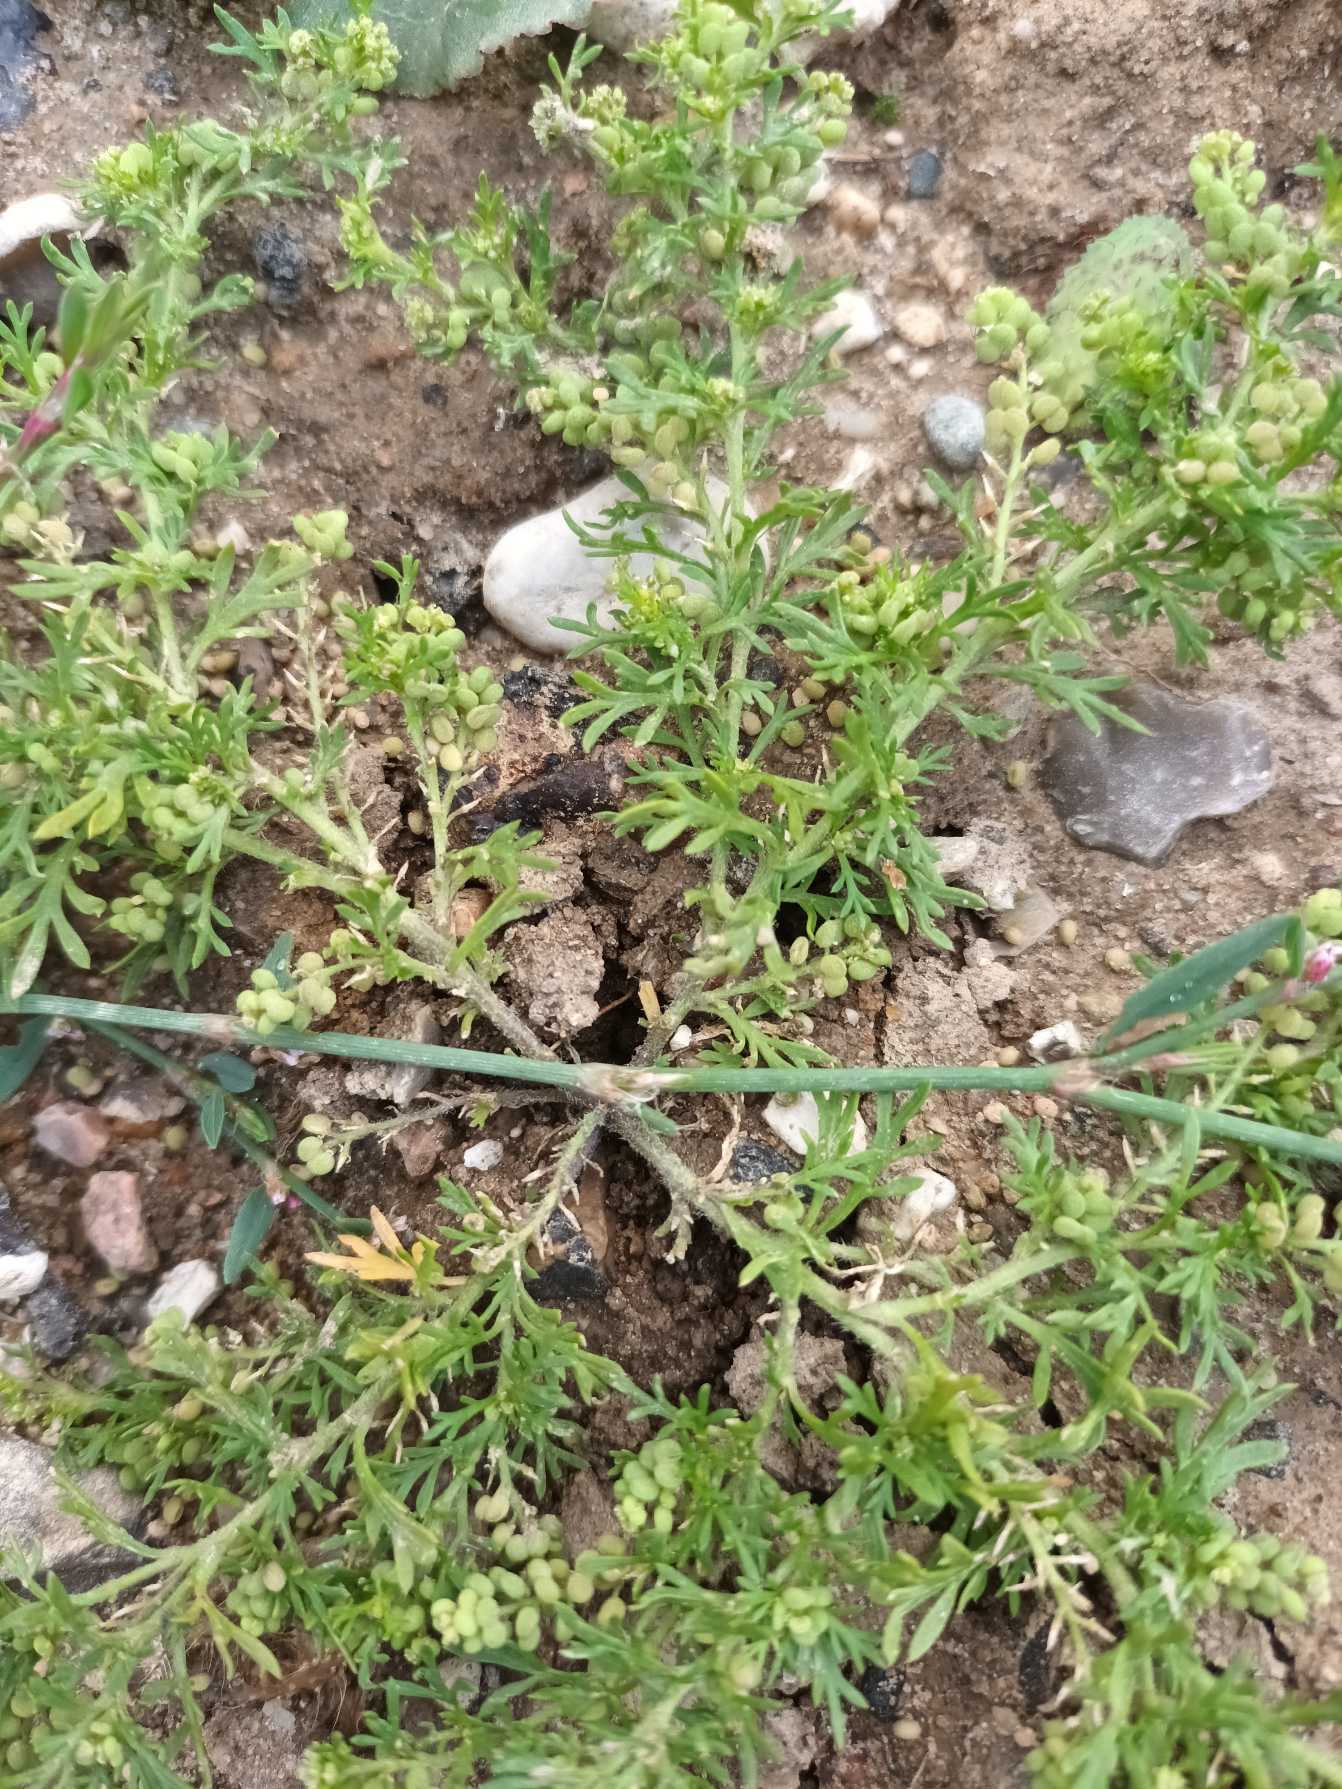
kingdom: Plantae
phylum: Tracheophyta
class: Magnoliopsida
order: Brassicales
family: Brassicaceae
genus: Lepidium
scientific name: Lepidium didymum
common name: Liden ravnefod
